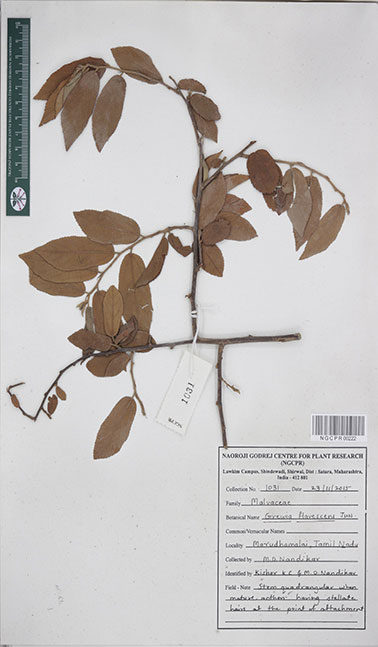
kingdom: Plantae
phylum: Tracheophyta
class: Magnoliopsida
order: Malvales
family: Malvaceae
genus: Grewia
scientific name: Grewia flavescens
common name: Sandpaper raisin
